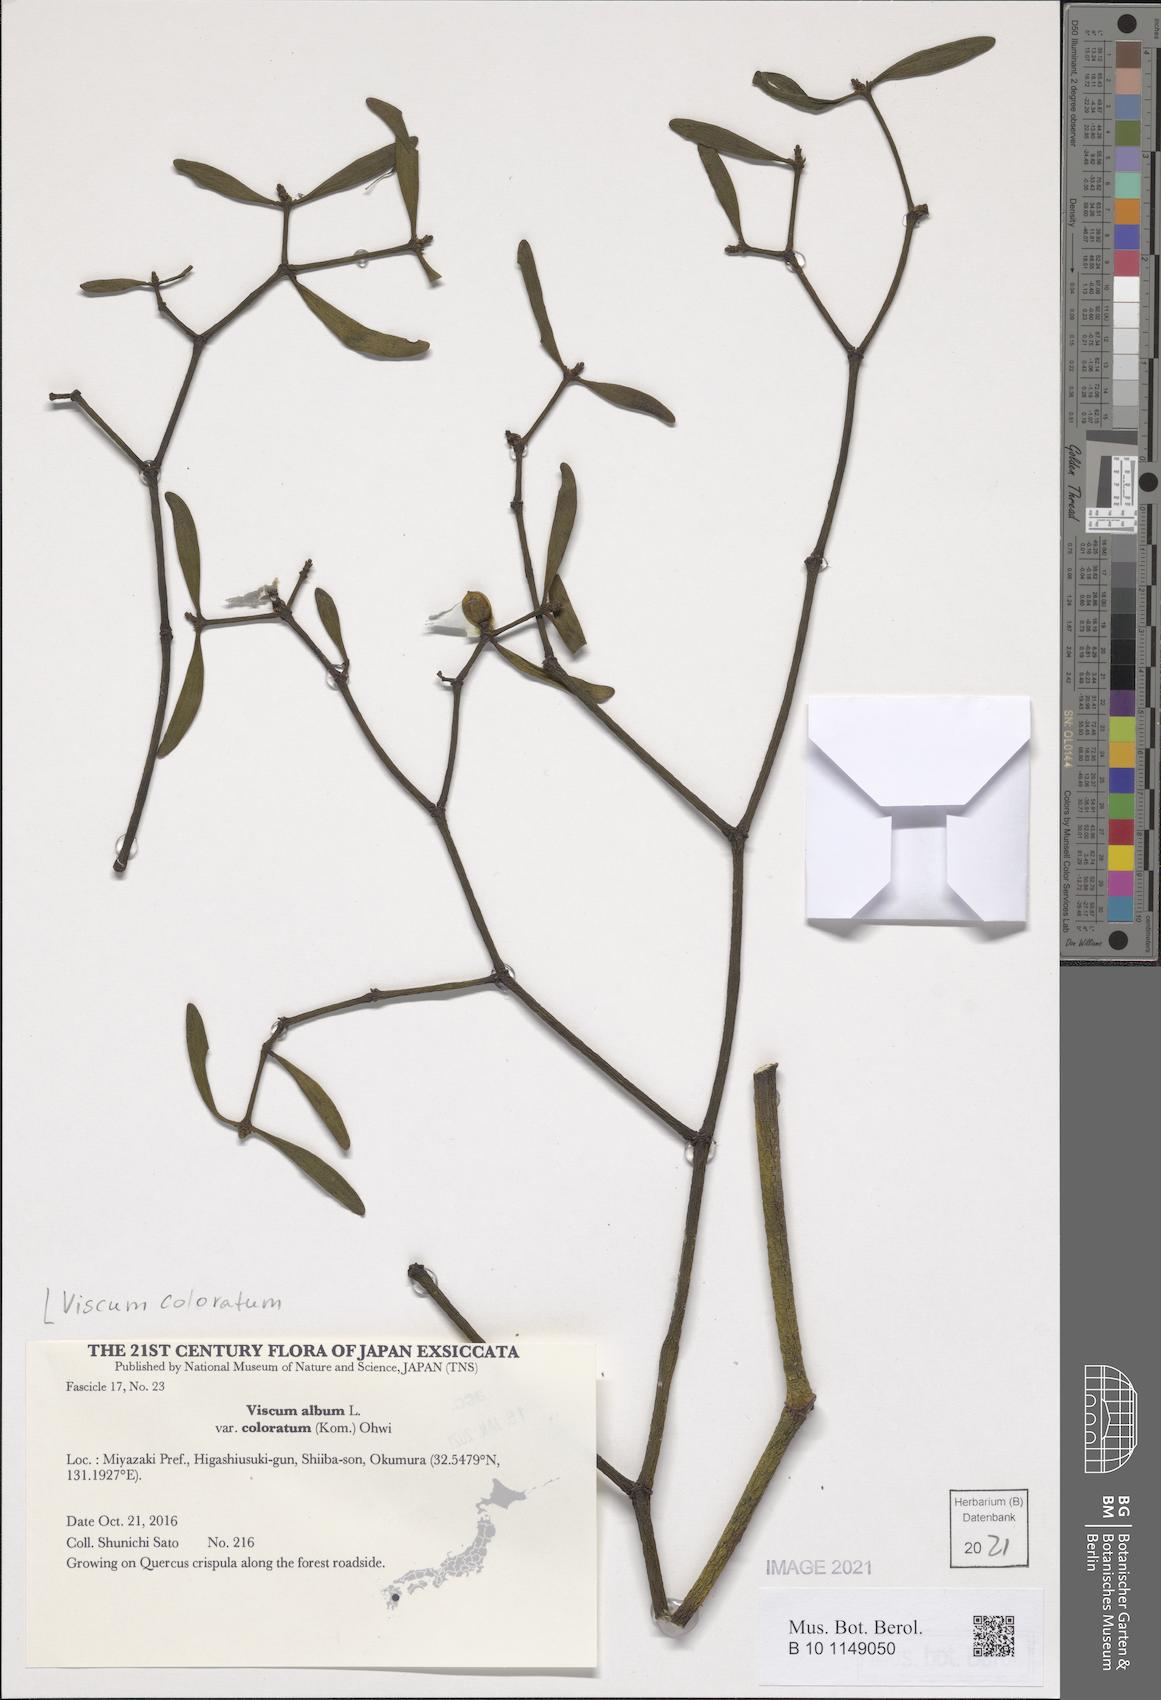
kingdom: Plantae
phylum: Tracheophyta
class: Magnoliopsida
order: Santalales
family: Viscaceae
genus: Viscum
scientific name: Viscum coloratum
